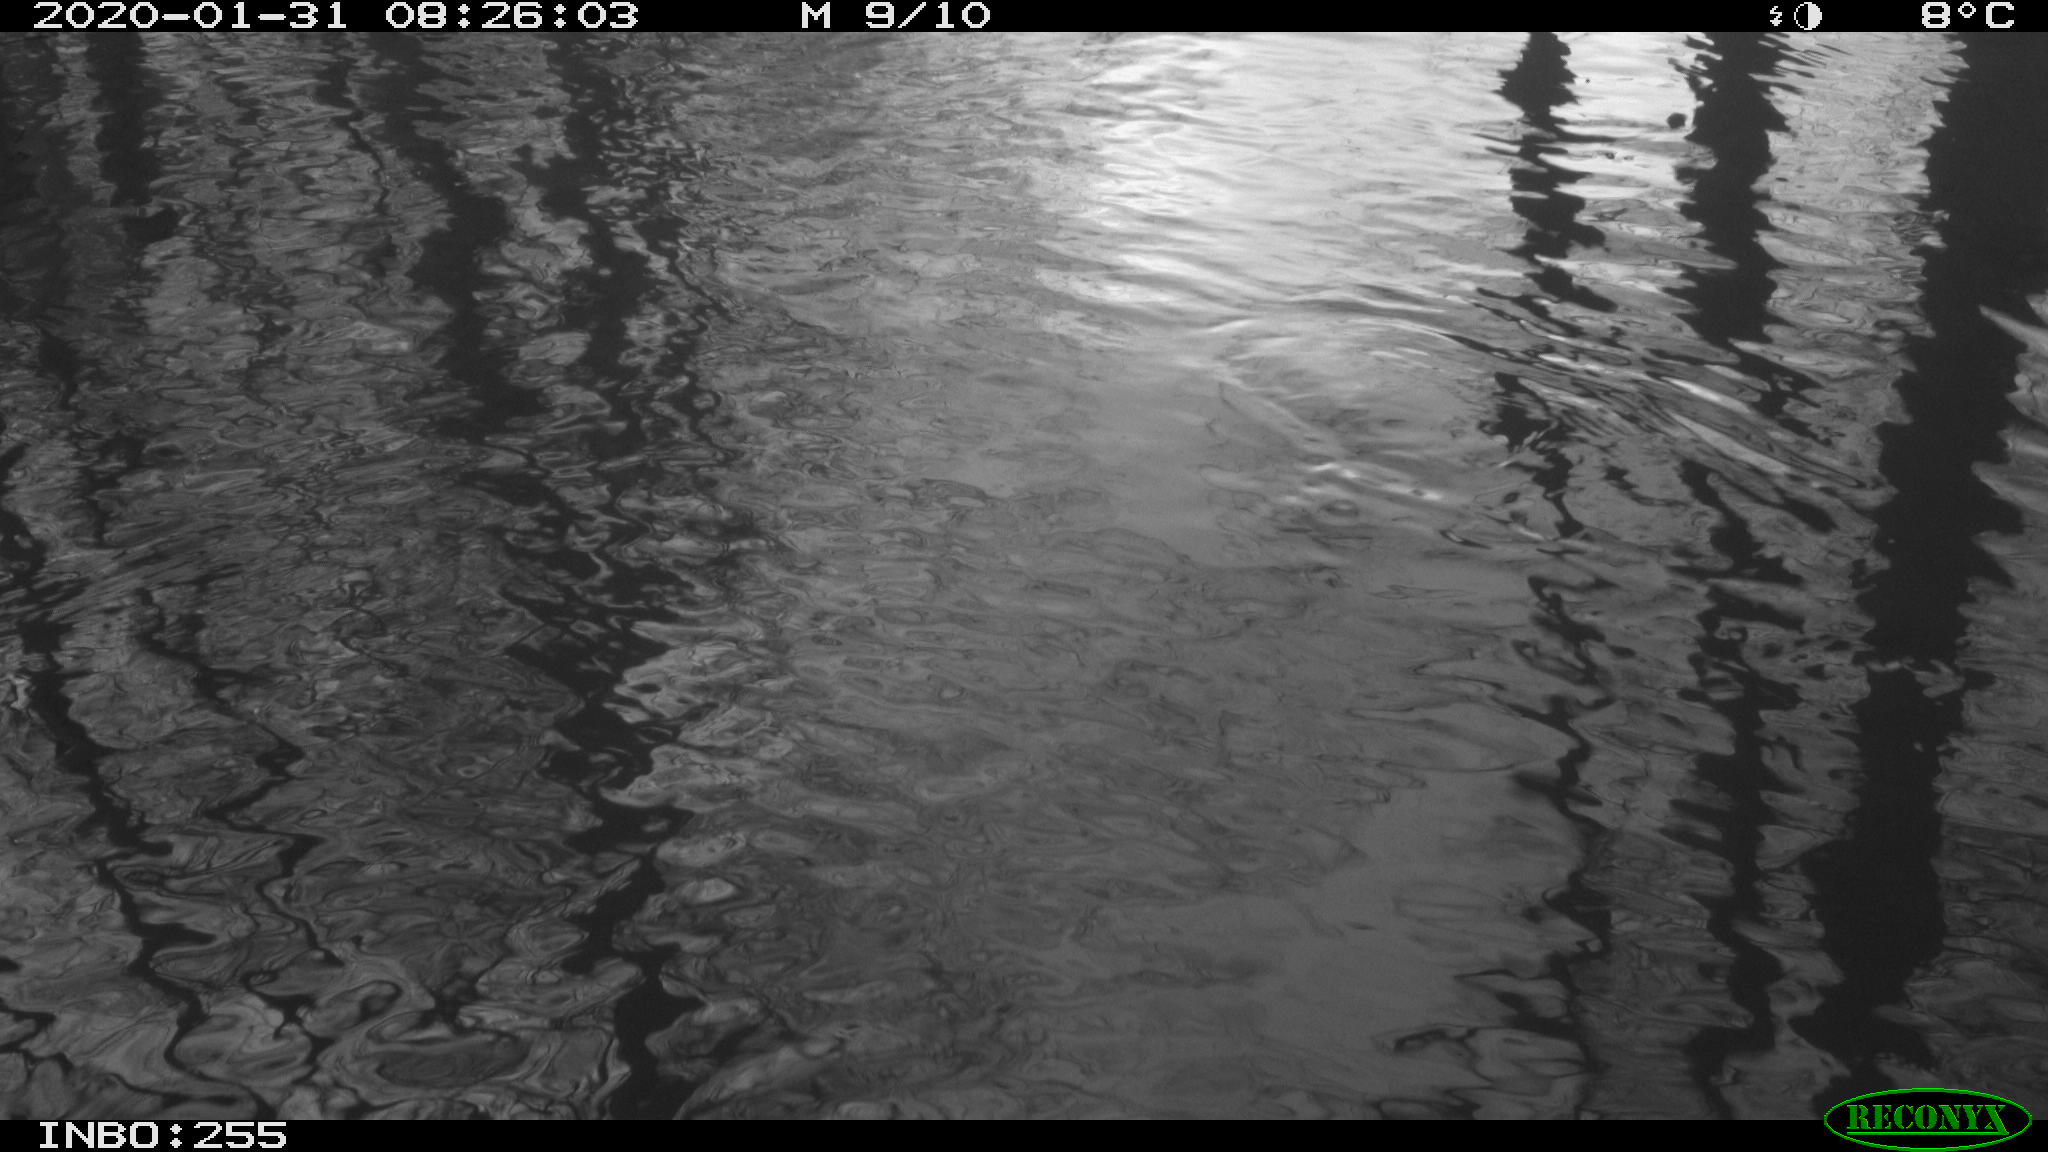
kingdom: Animalia
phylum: Chordata
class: Aves
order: Gruiformes
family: Rallidae
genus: Fulica
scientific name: Fulica atra
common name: Eurasian coot
